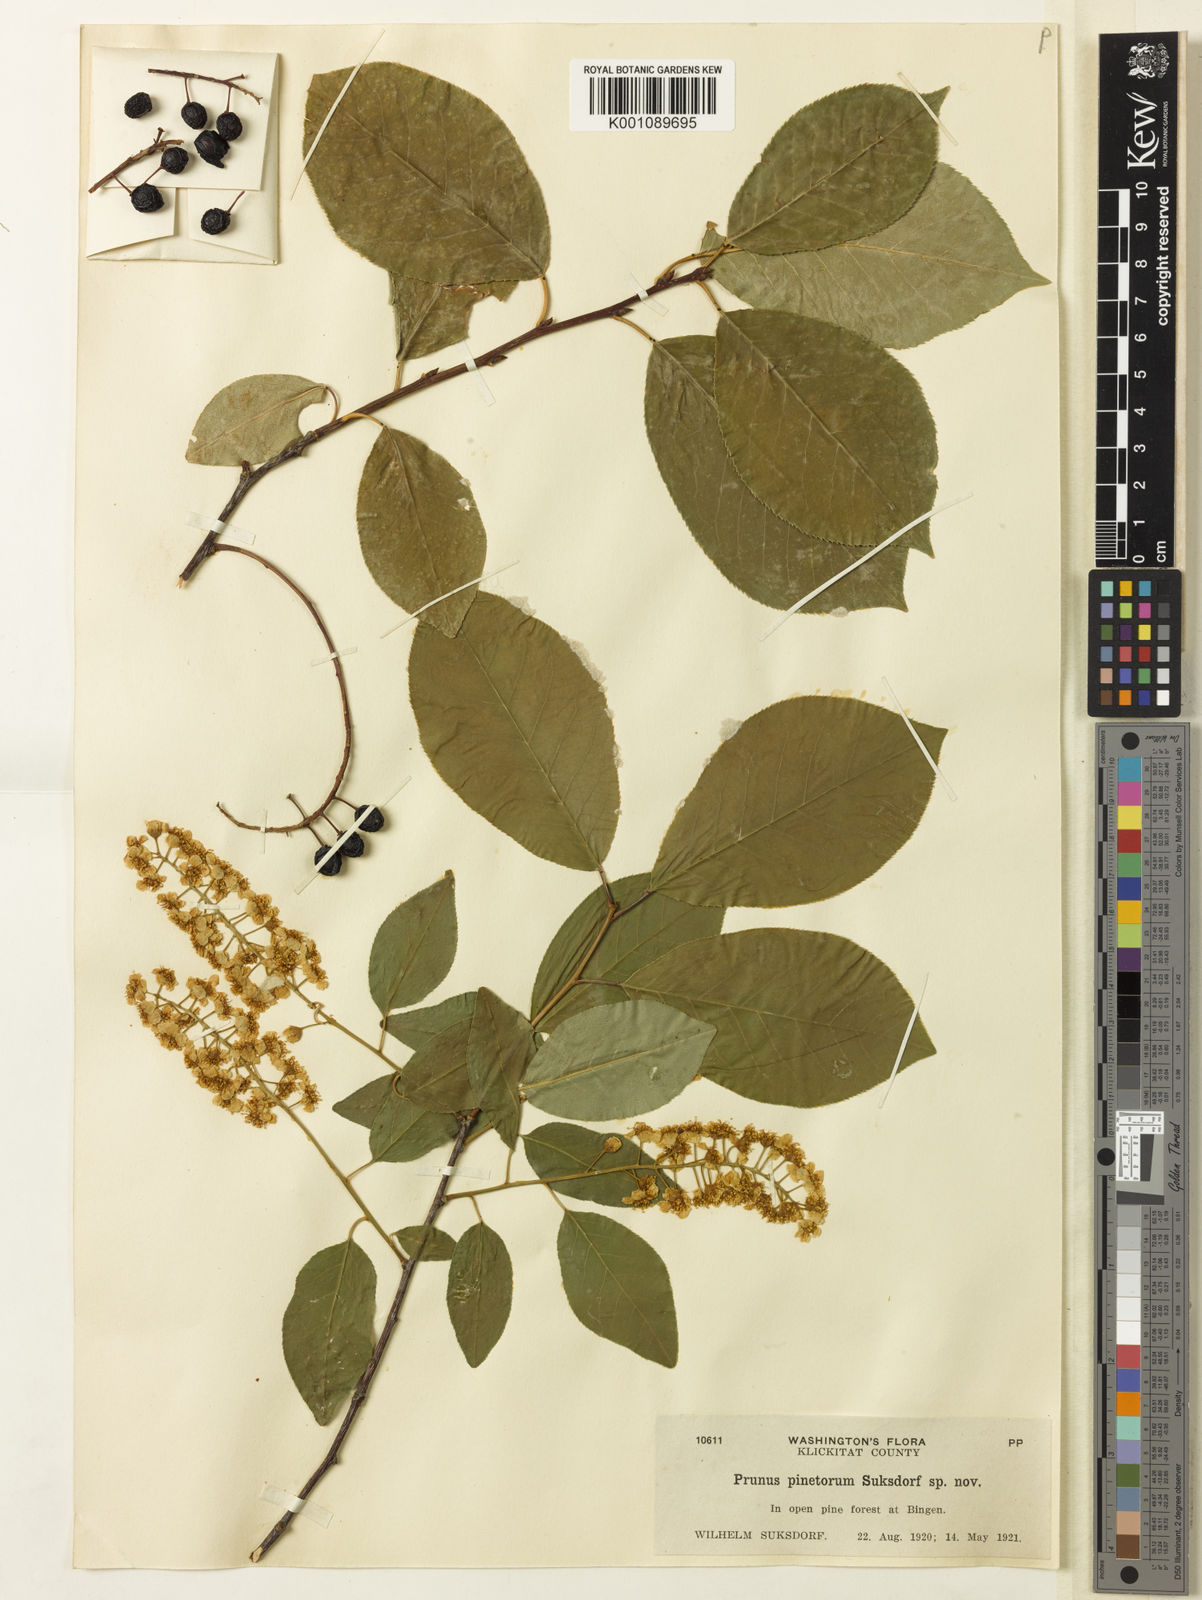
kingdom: Plantae
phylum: Tracheophyta
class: Magnoliopsida
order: Rosales
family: Rosaceae
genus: Prunus
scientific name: Prunus pinetorum
